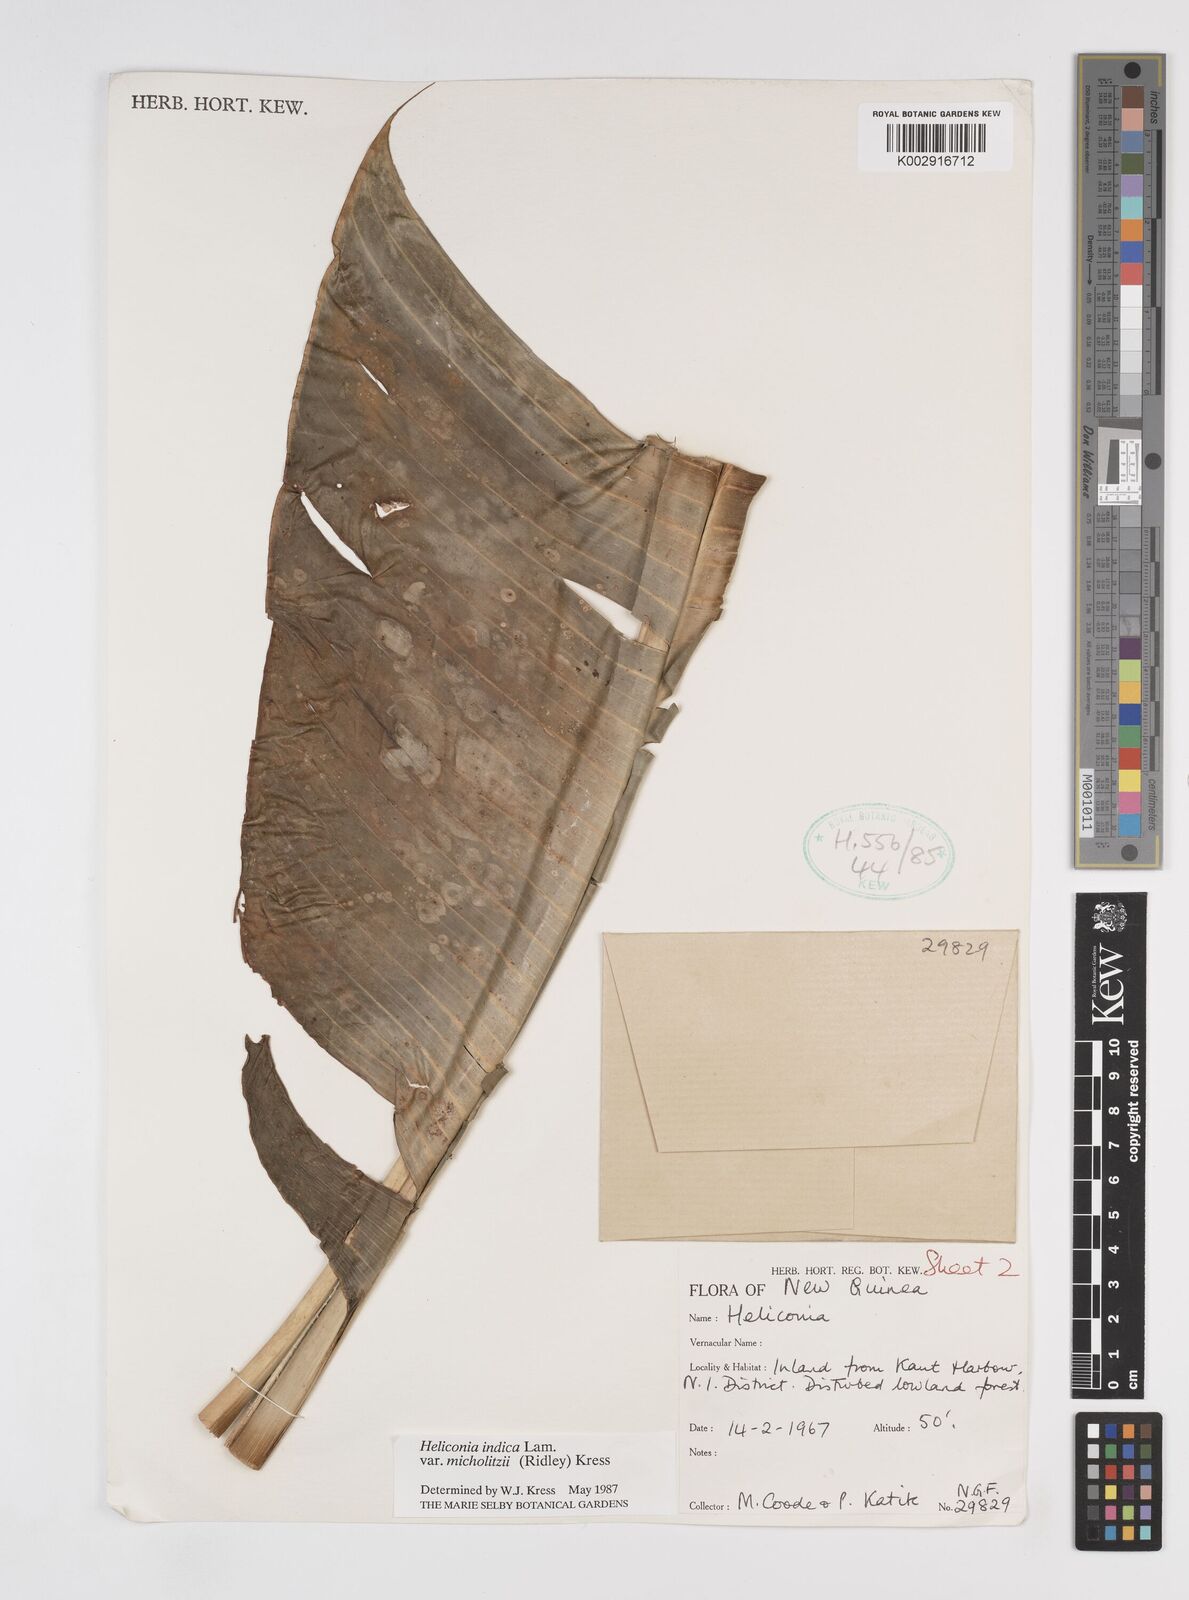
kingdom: Plantae
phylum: Tracheophyta
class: Liliopsida
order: Zingiberales
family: Heliconiaceae
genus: Heliconia
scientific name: Heliconia indica
